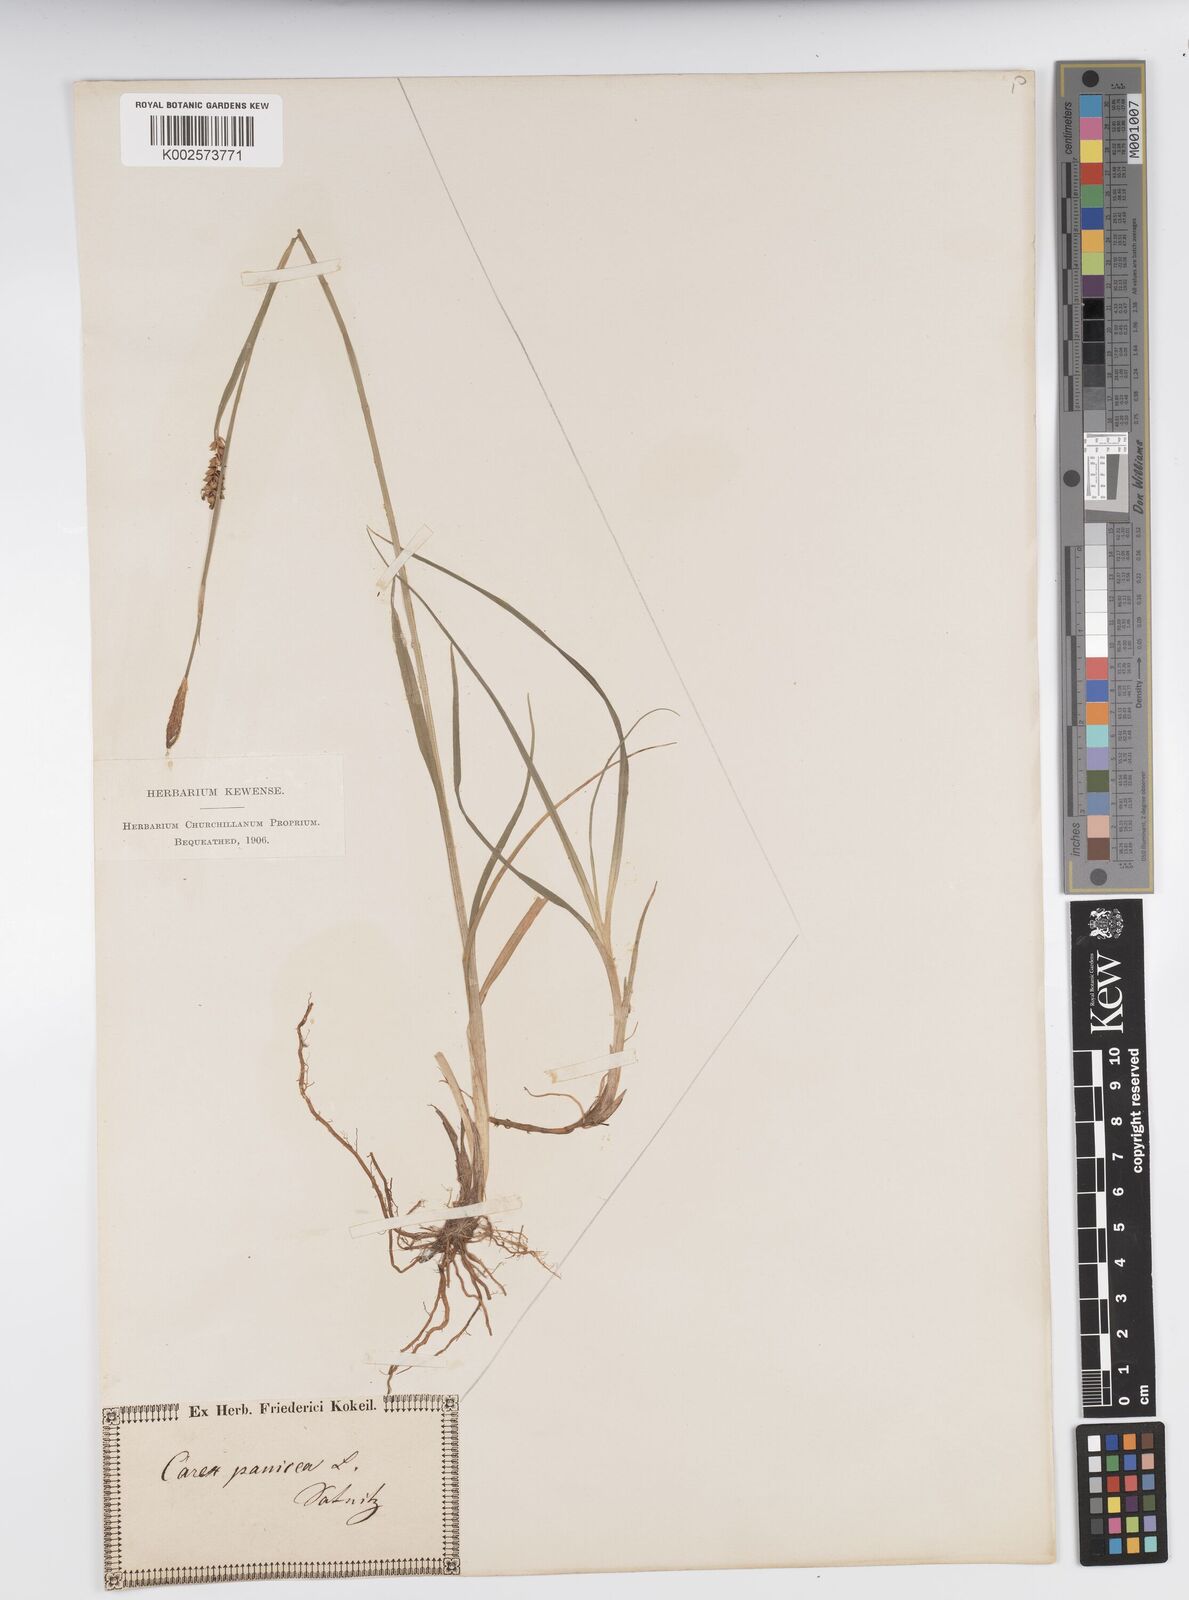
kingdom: Plantae
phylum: Tracheophyta
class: Liliopsida
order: Poales
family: Cyperaceae
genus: Carex
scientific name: Carex panicea
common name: Carnation sedge
